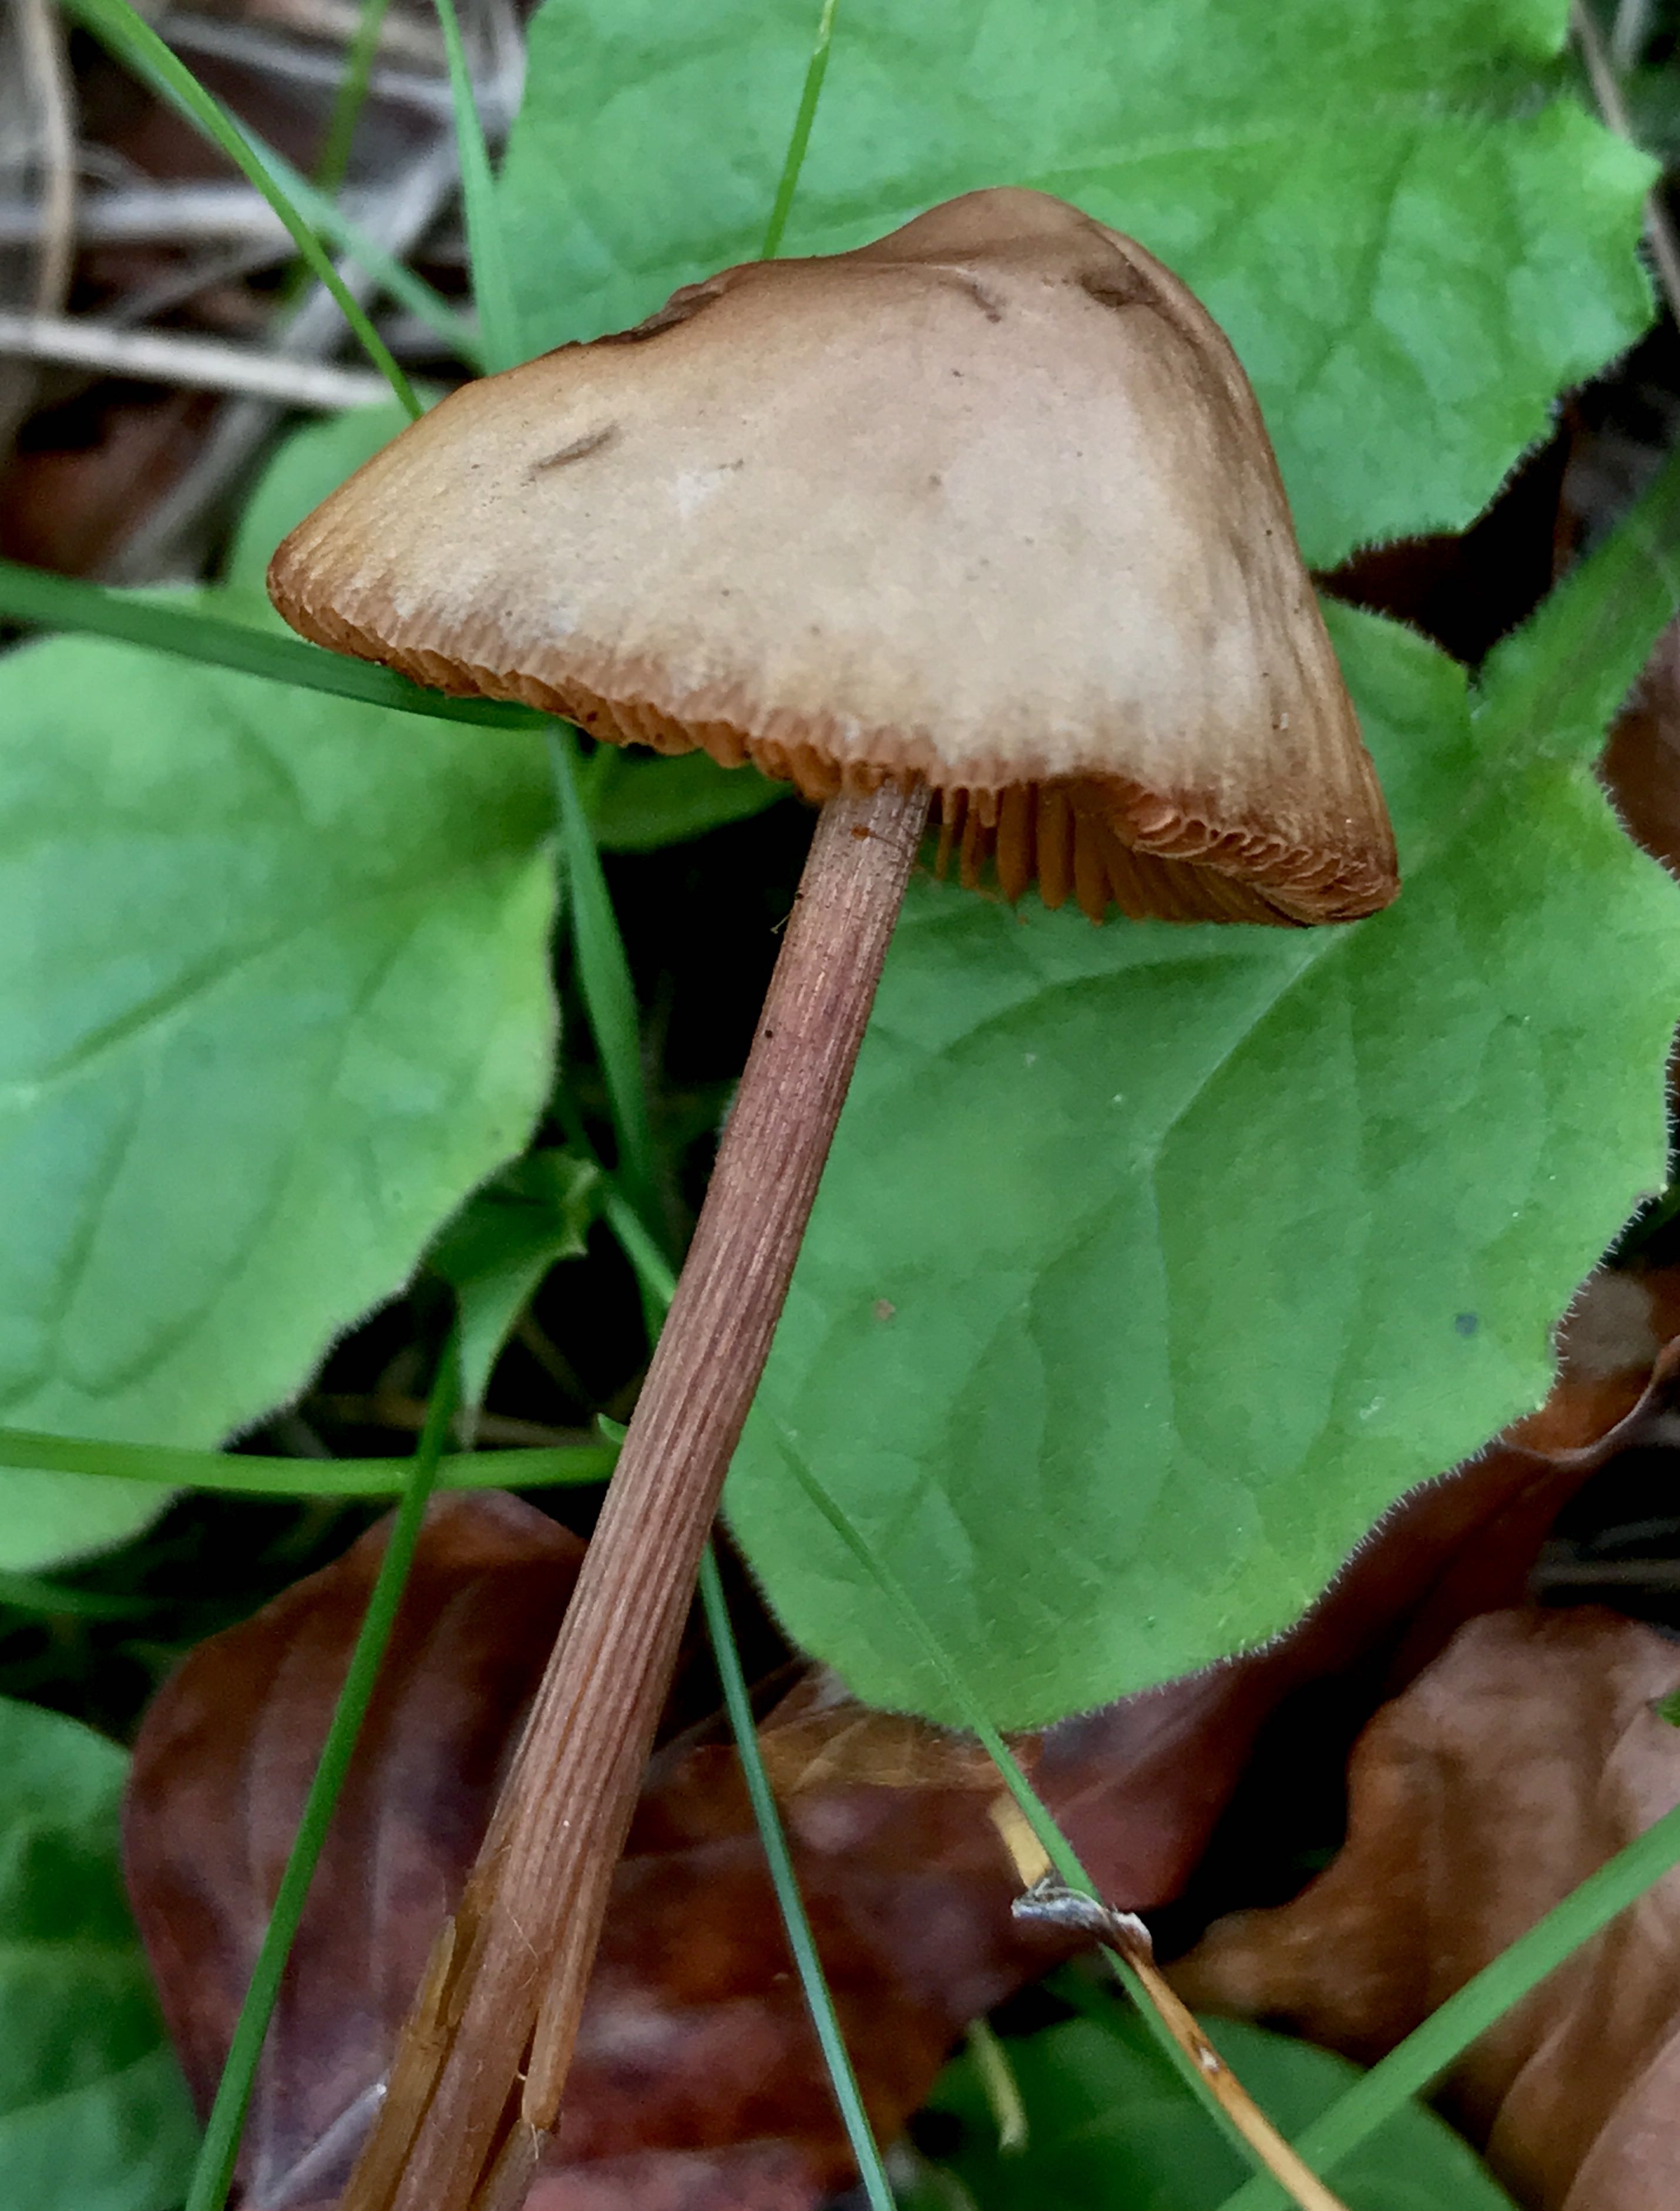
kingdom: Fungi
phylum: Basidiomycota
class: Agaricomycetes
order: Agaricales
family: Bolbitiaceae
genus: Conocybe
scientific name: Conocybe
